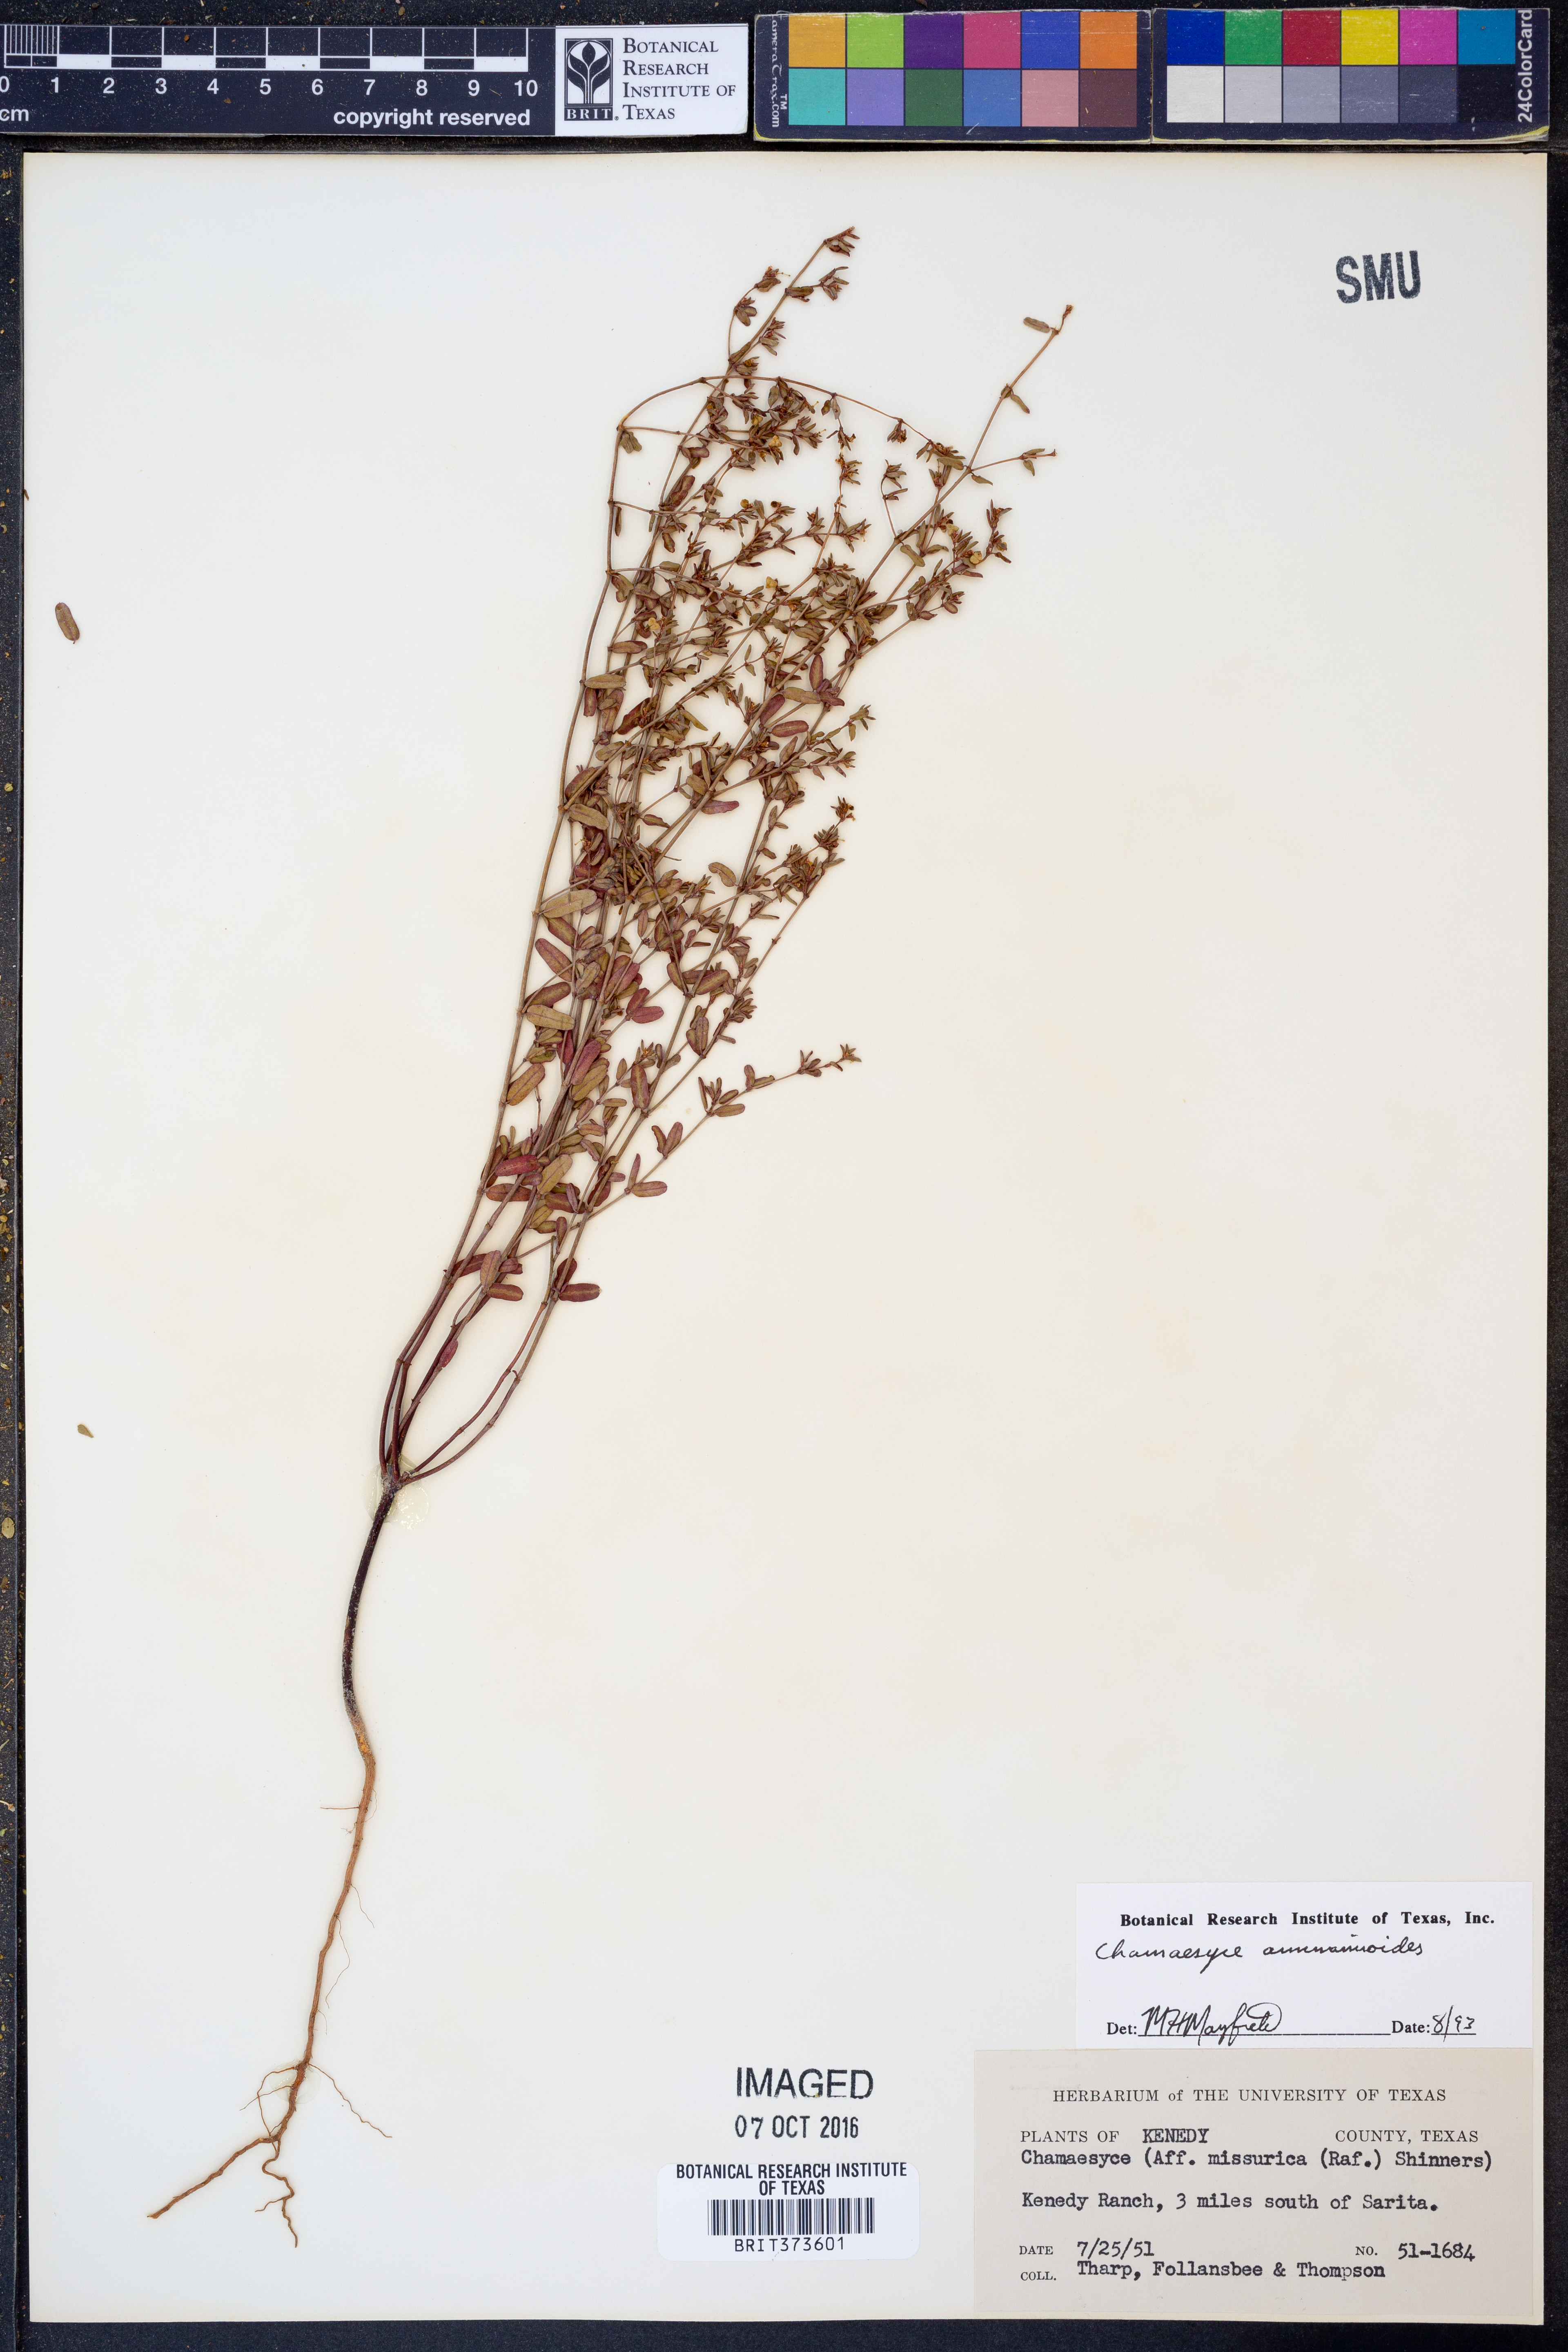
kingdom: Plantae
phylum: Tracheophyta
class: Magnoliopsida
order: Malpighiales
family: Euphorbiaceae
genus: Euphorbia
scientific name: Euphorbia bombensis
